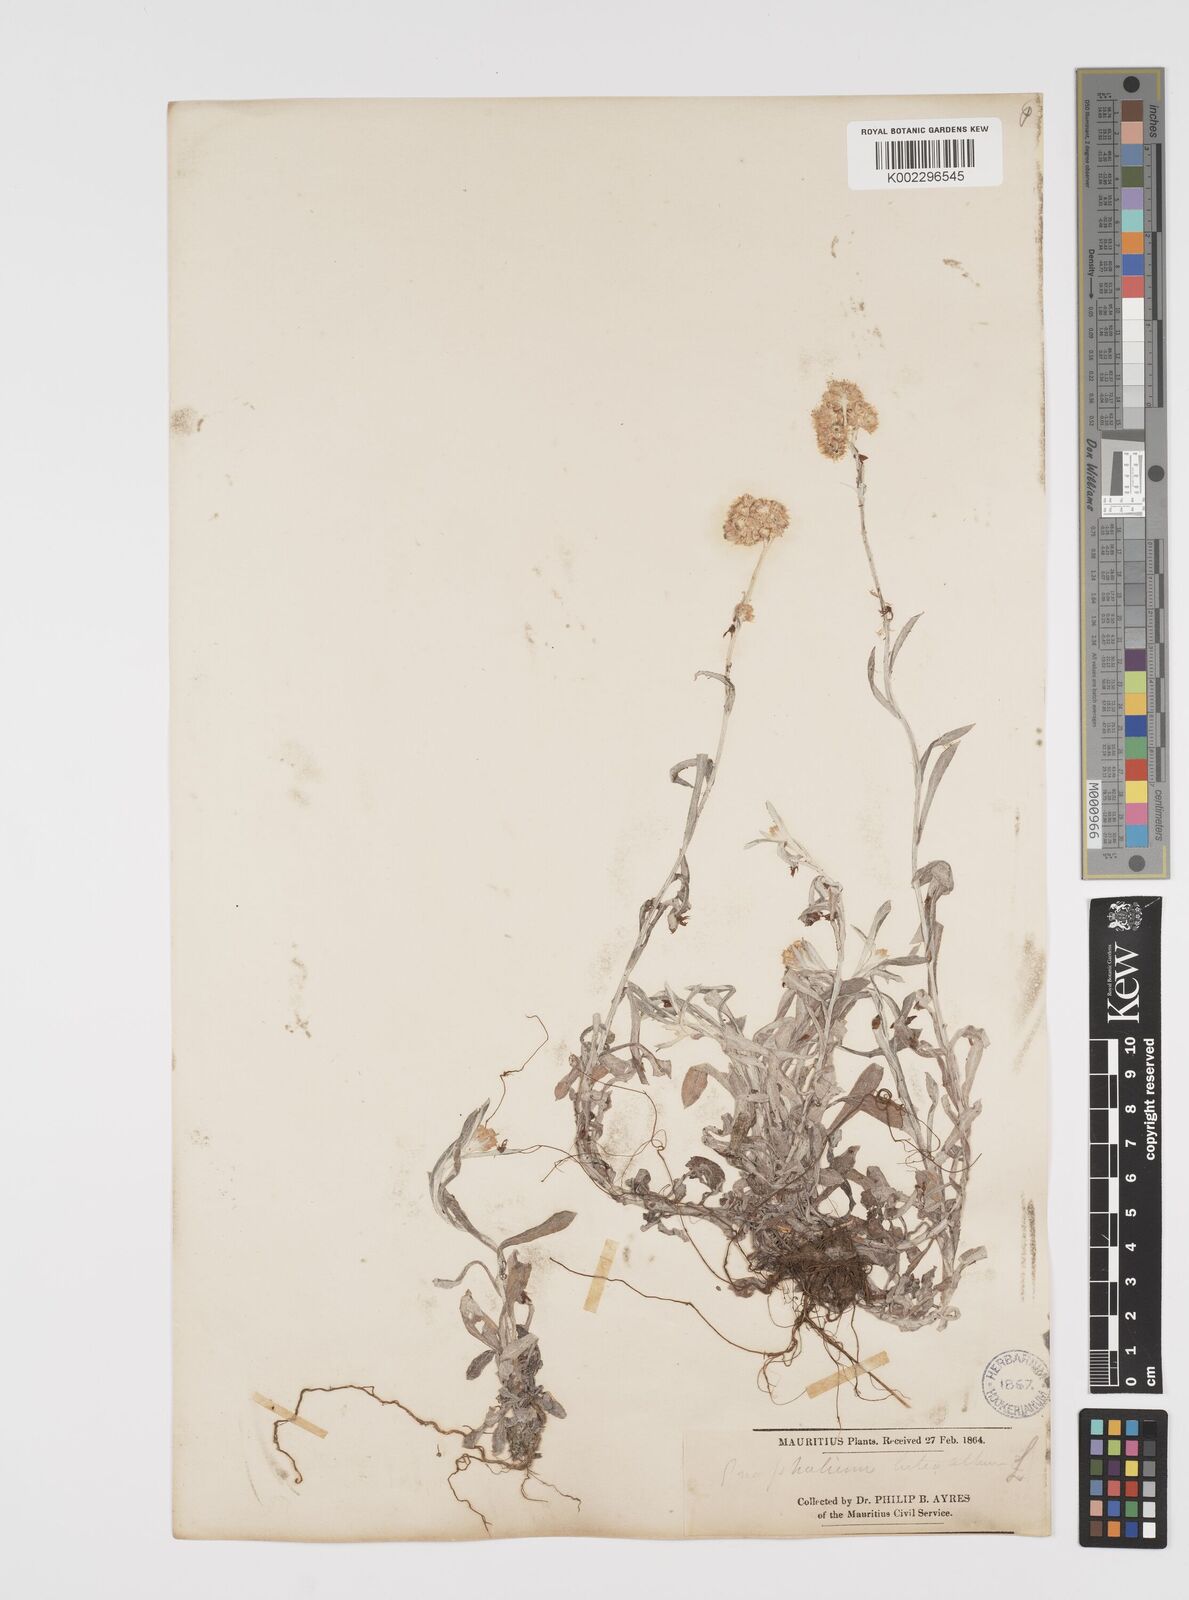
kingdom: Plantae
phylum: Tracheophyta
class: Magnoliopsida
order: Asterales
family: Asteraceae
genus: Helichrysum
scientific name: Helichrysum luteoalbum
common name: Daisy
